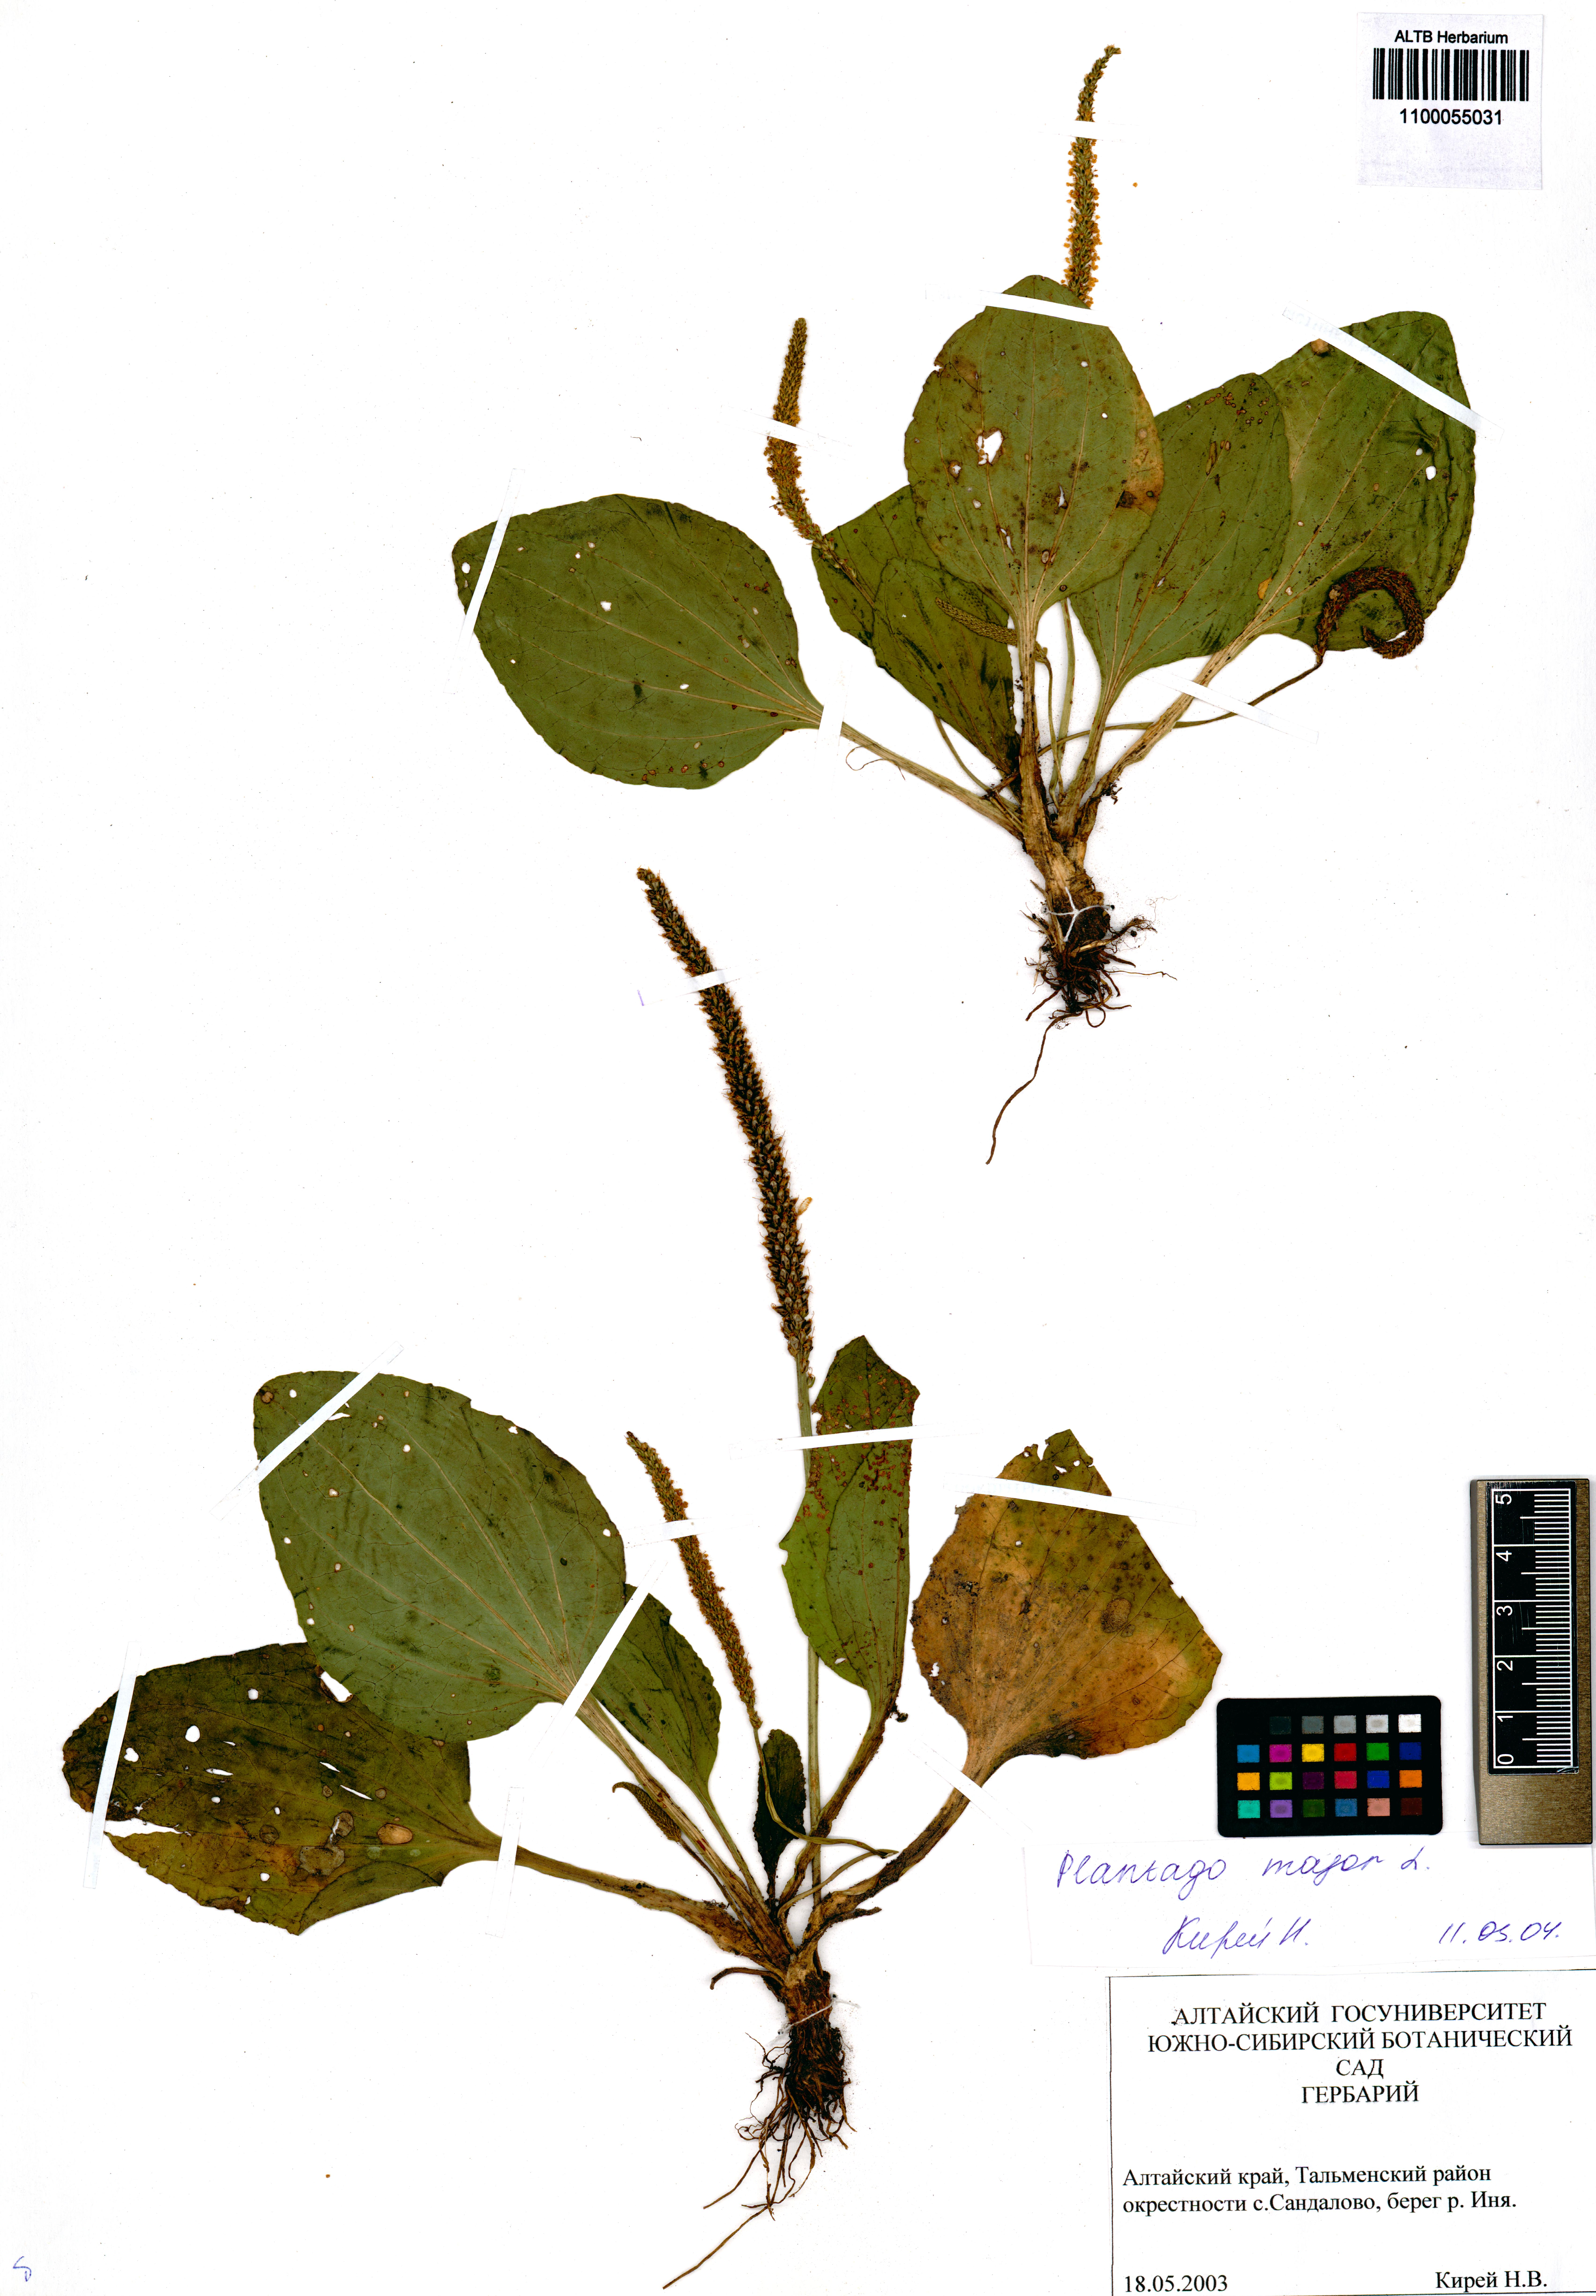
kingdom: Plantae
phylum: Tracheophyta
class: Magnoliopsida
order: Lamiales
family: Plantaginaceae
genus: Plantago
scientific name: Plantago major
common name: Common plantain
